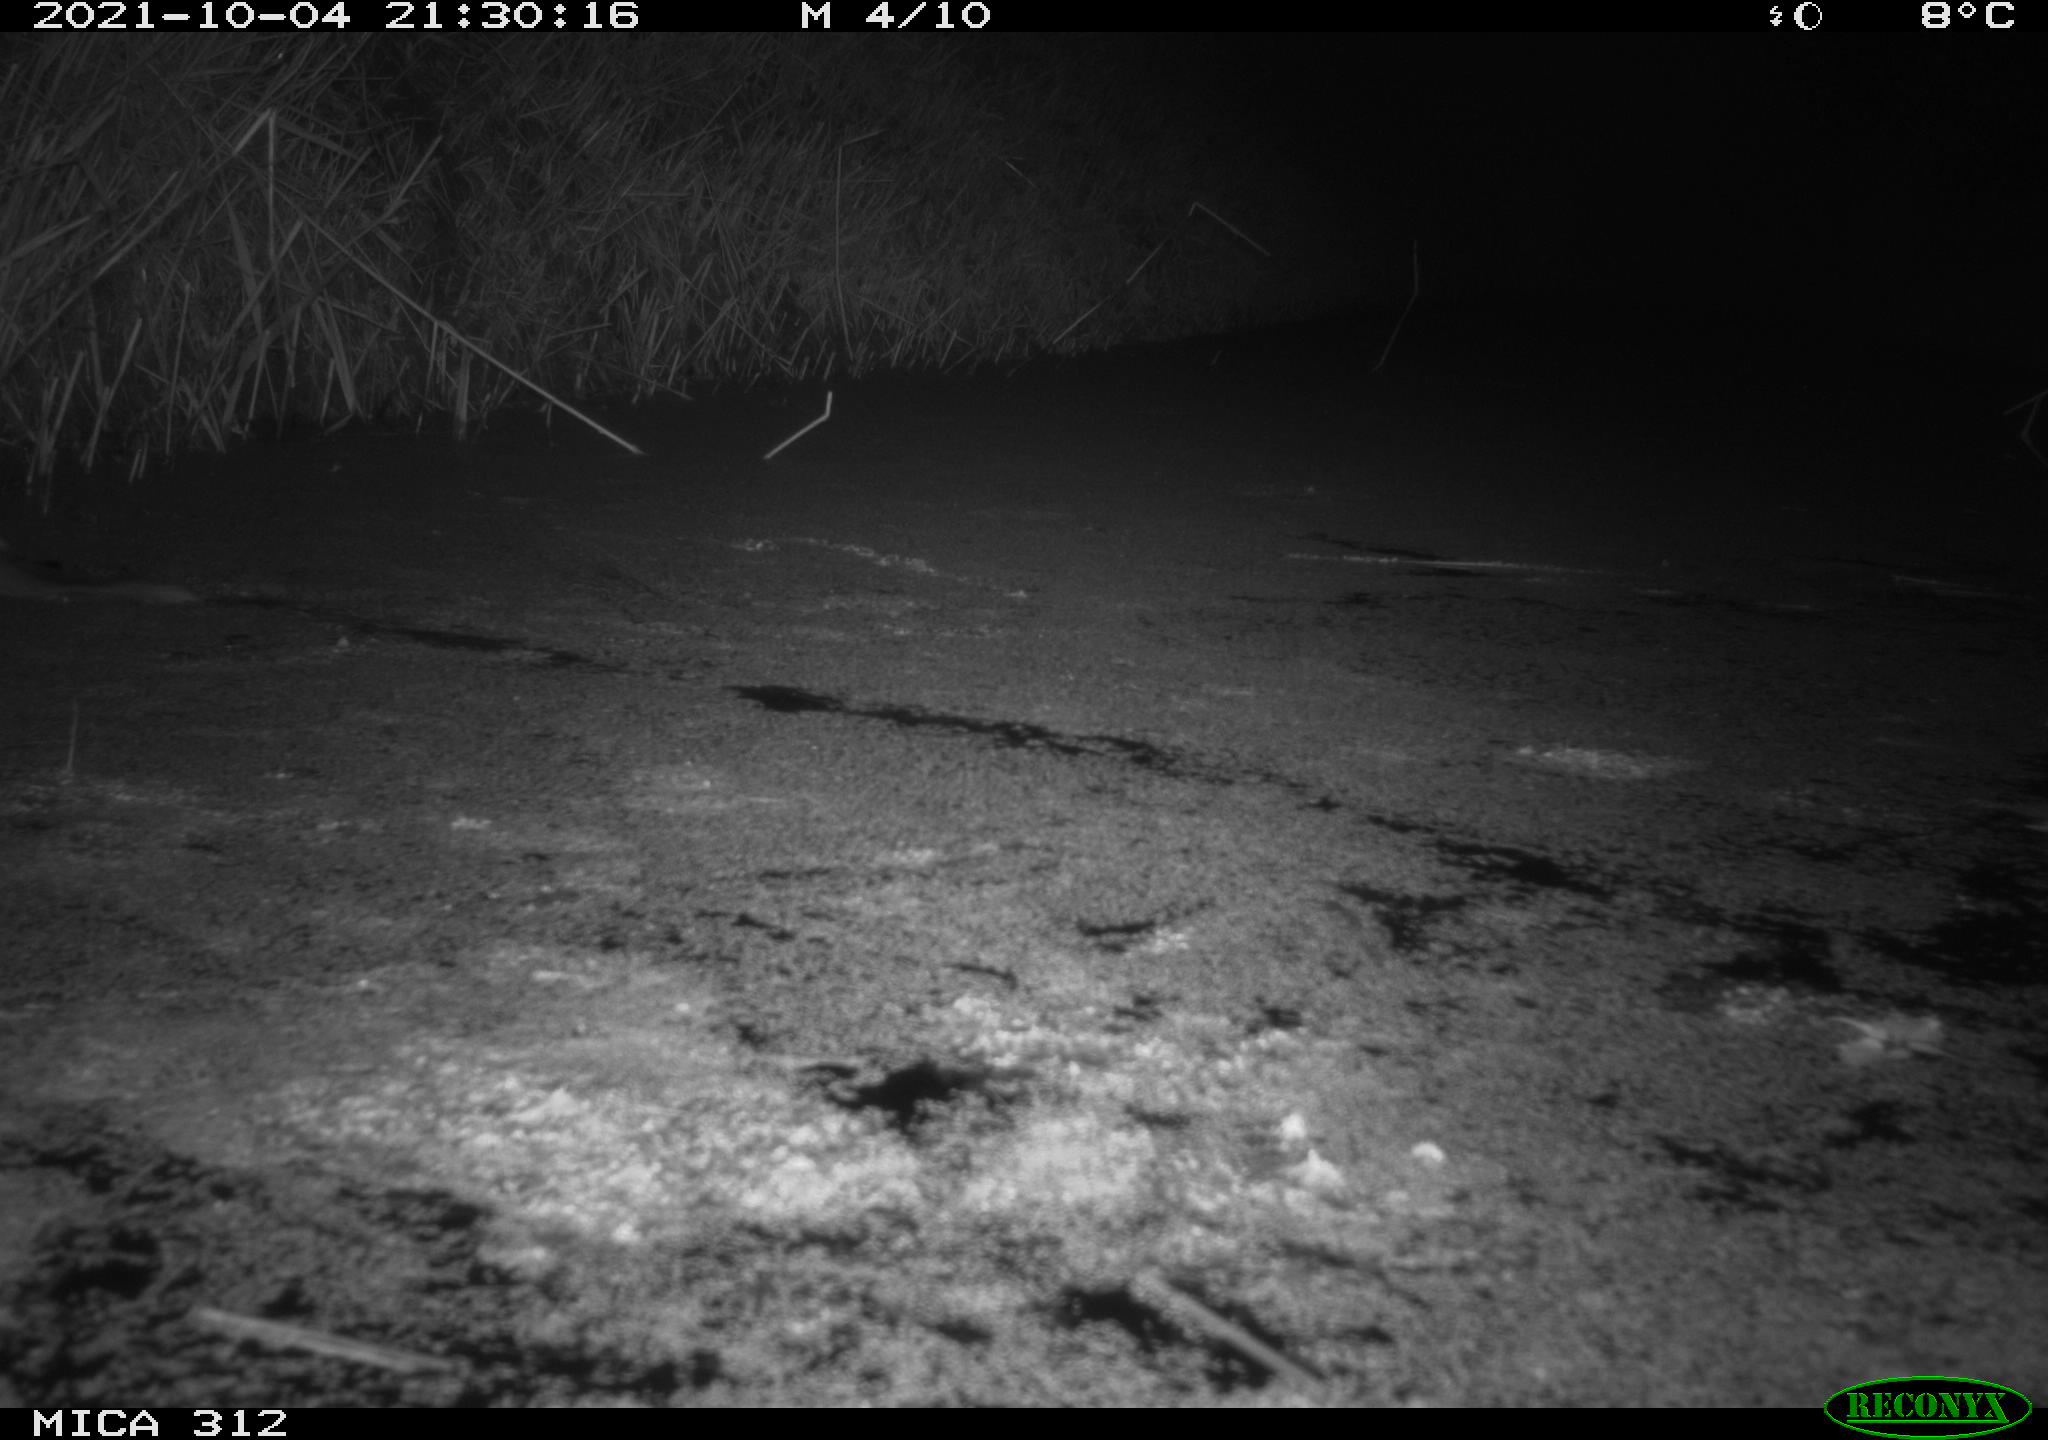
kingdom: Animalia
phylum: Chordata
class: Mammalia
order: Rodentia
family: Muridae
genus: Rattus
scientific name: Rattus norvegicus
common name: Brown rat
